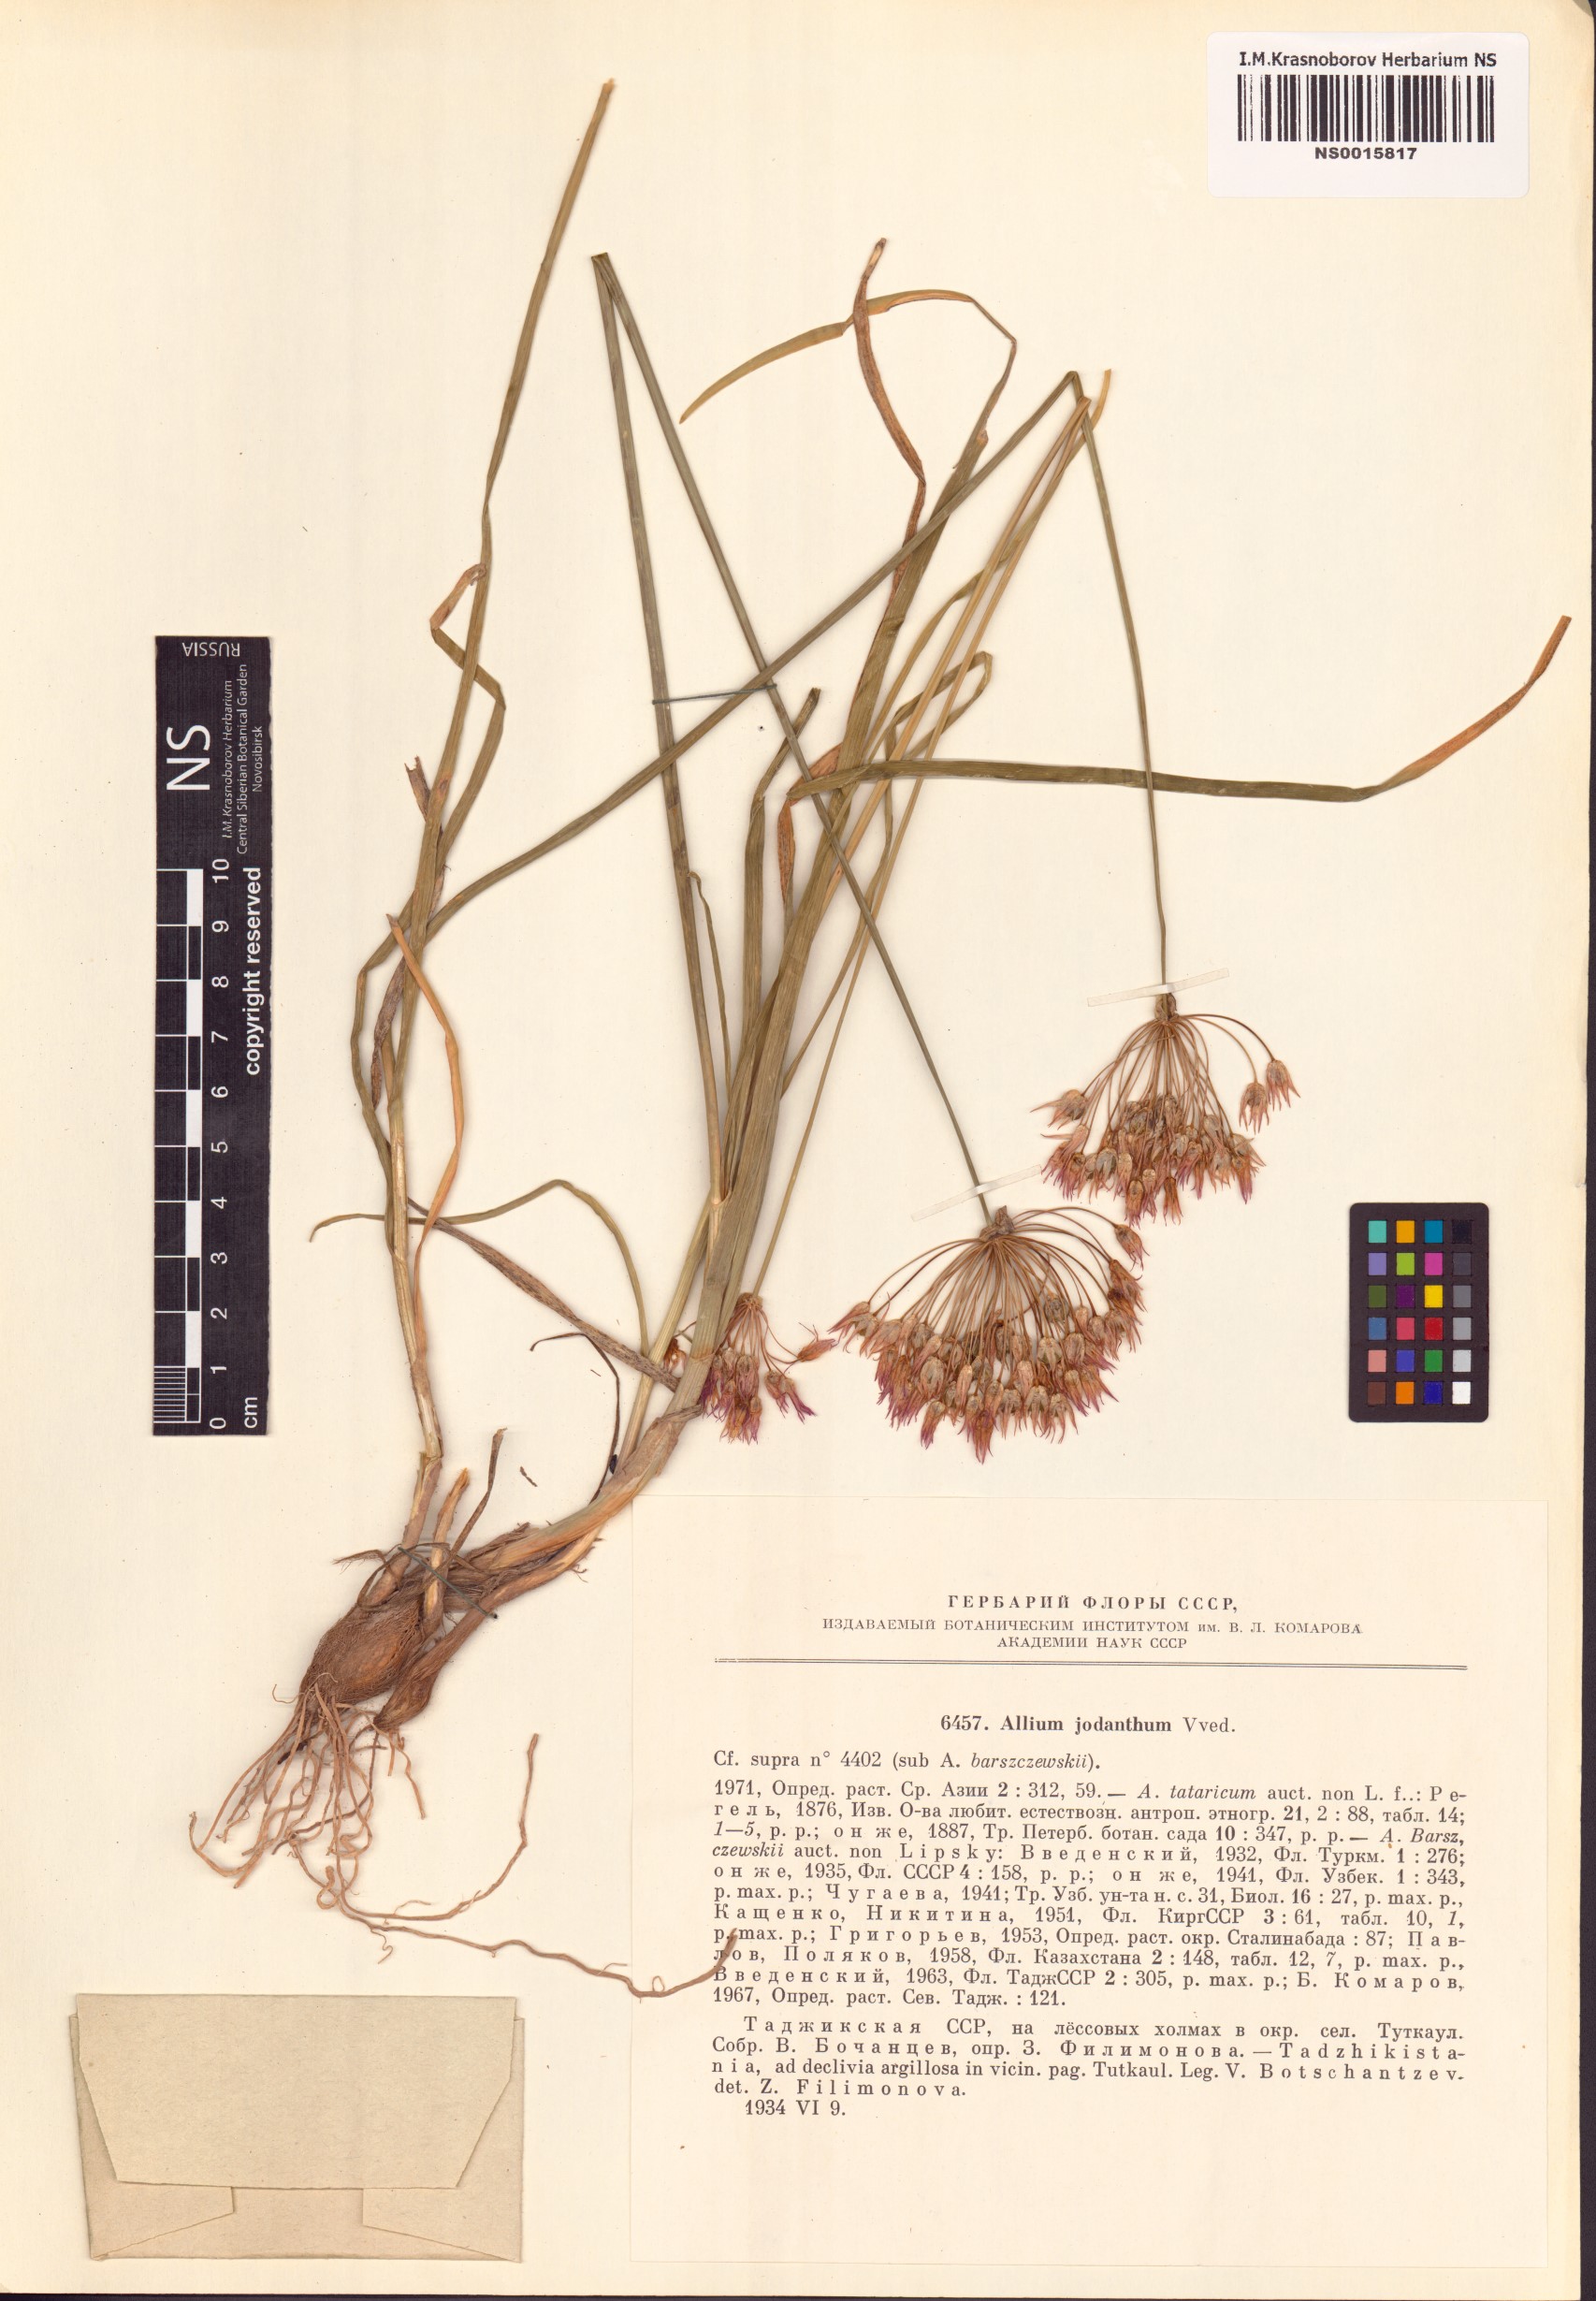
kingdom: Plantae
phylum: Tracheophyta
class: Liliopsida
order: Asparagales
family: Amaryllidaceae
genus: Allium
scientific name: Allium jodanthum
